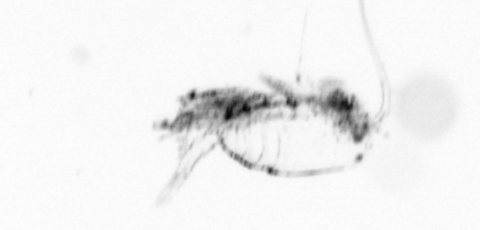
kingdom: Animalia
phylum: Arthropoda
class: Copepoda
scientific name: Copepoda
